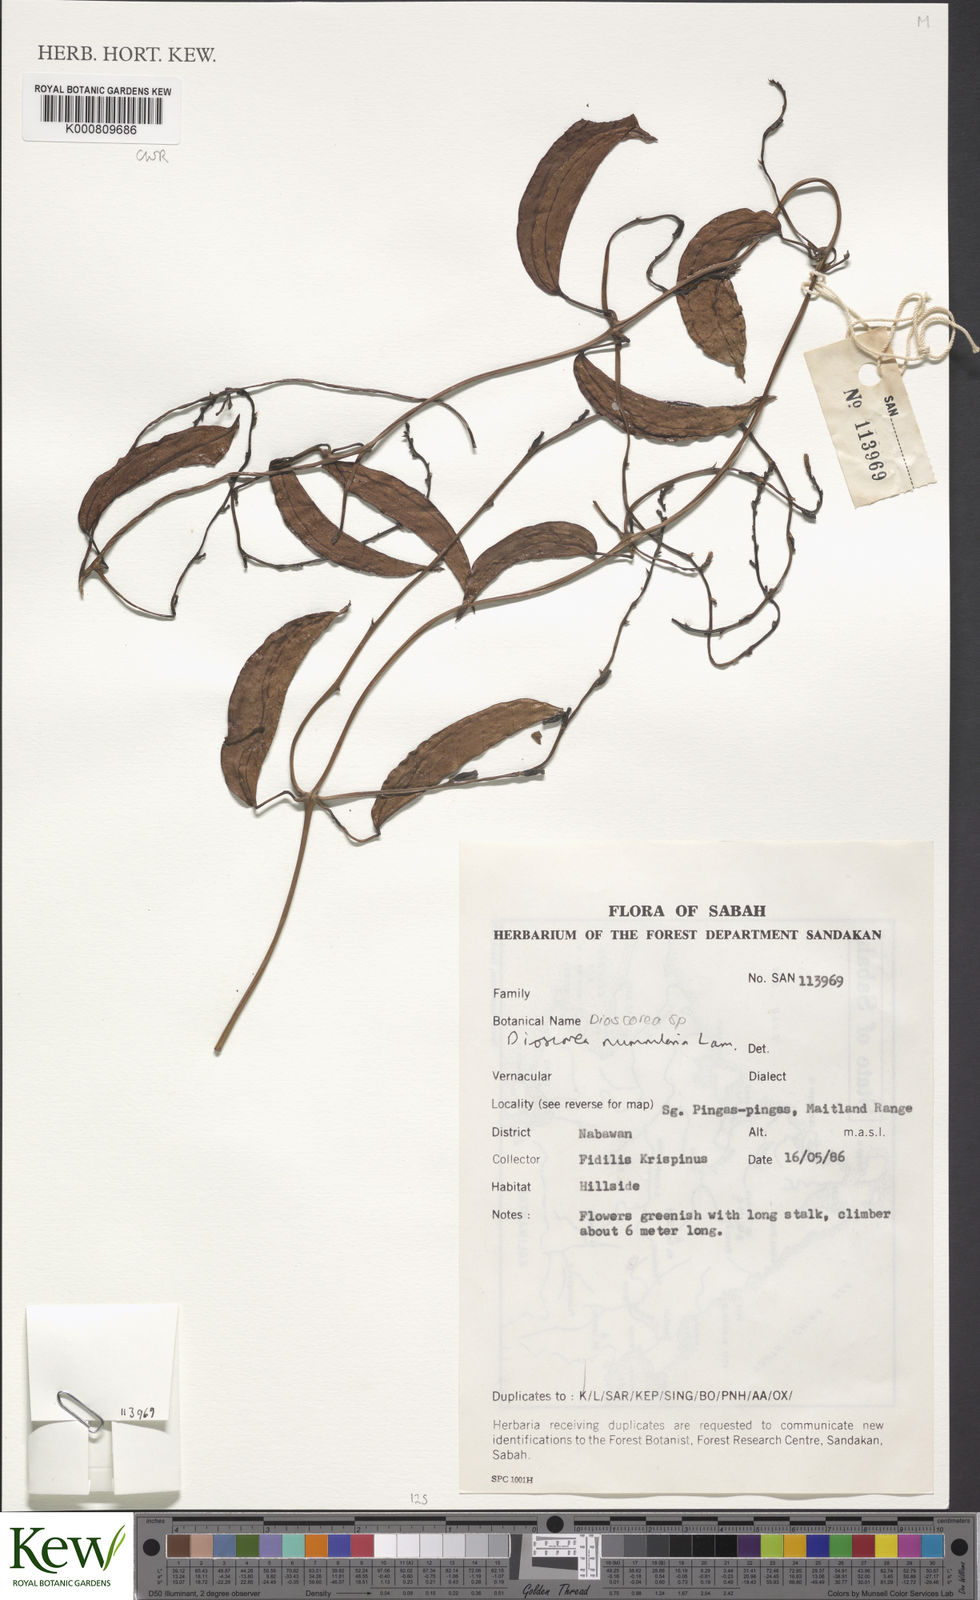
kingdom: Plantae
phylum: Tracheophyta
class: Liliopsida
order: Dioscoreales
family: Dioscoreaceae
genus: Dioscorea
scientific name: Dioscorea nummularia
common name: Pacific yam
